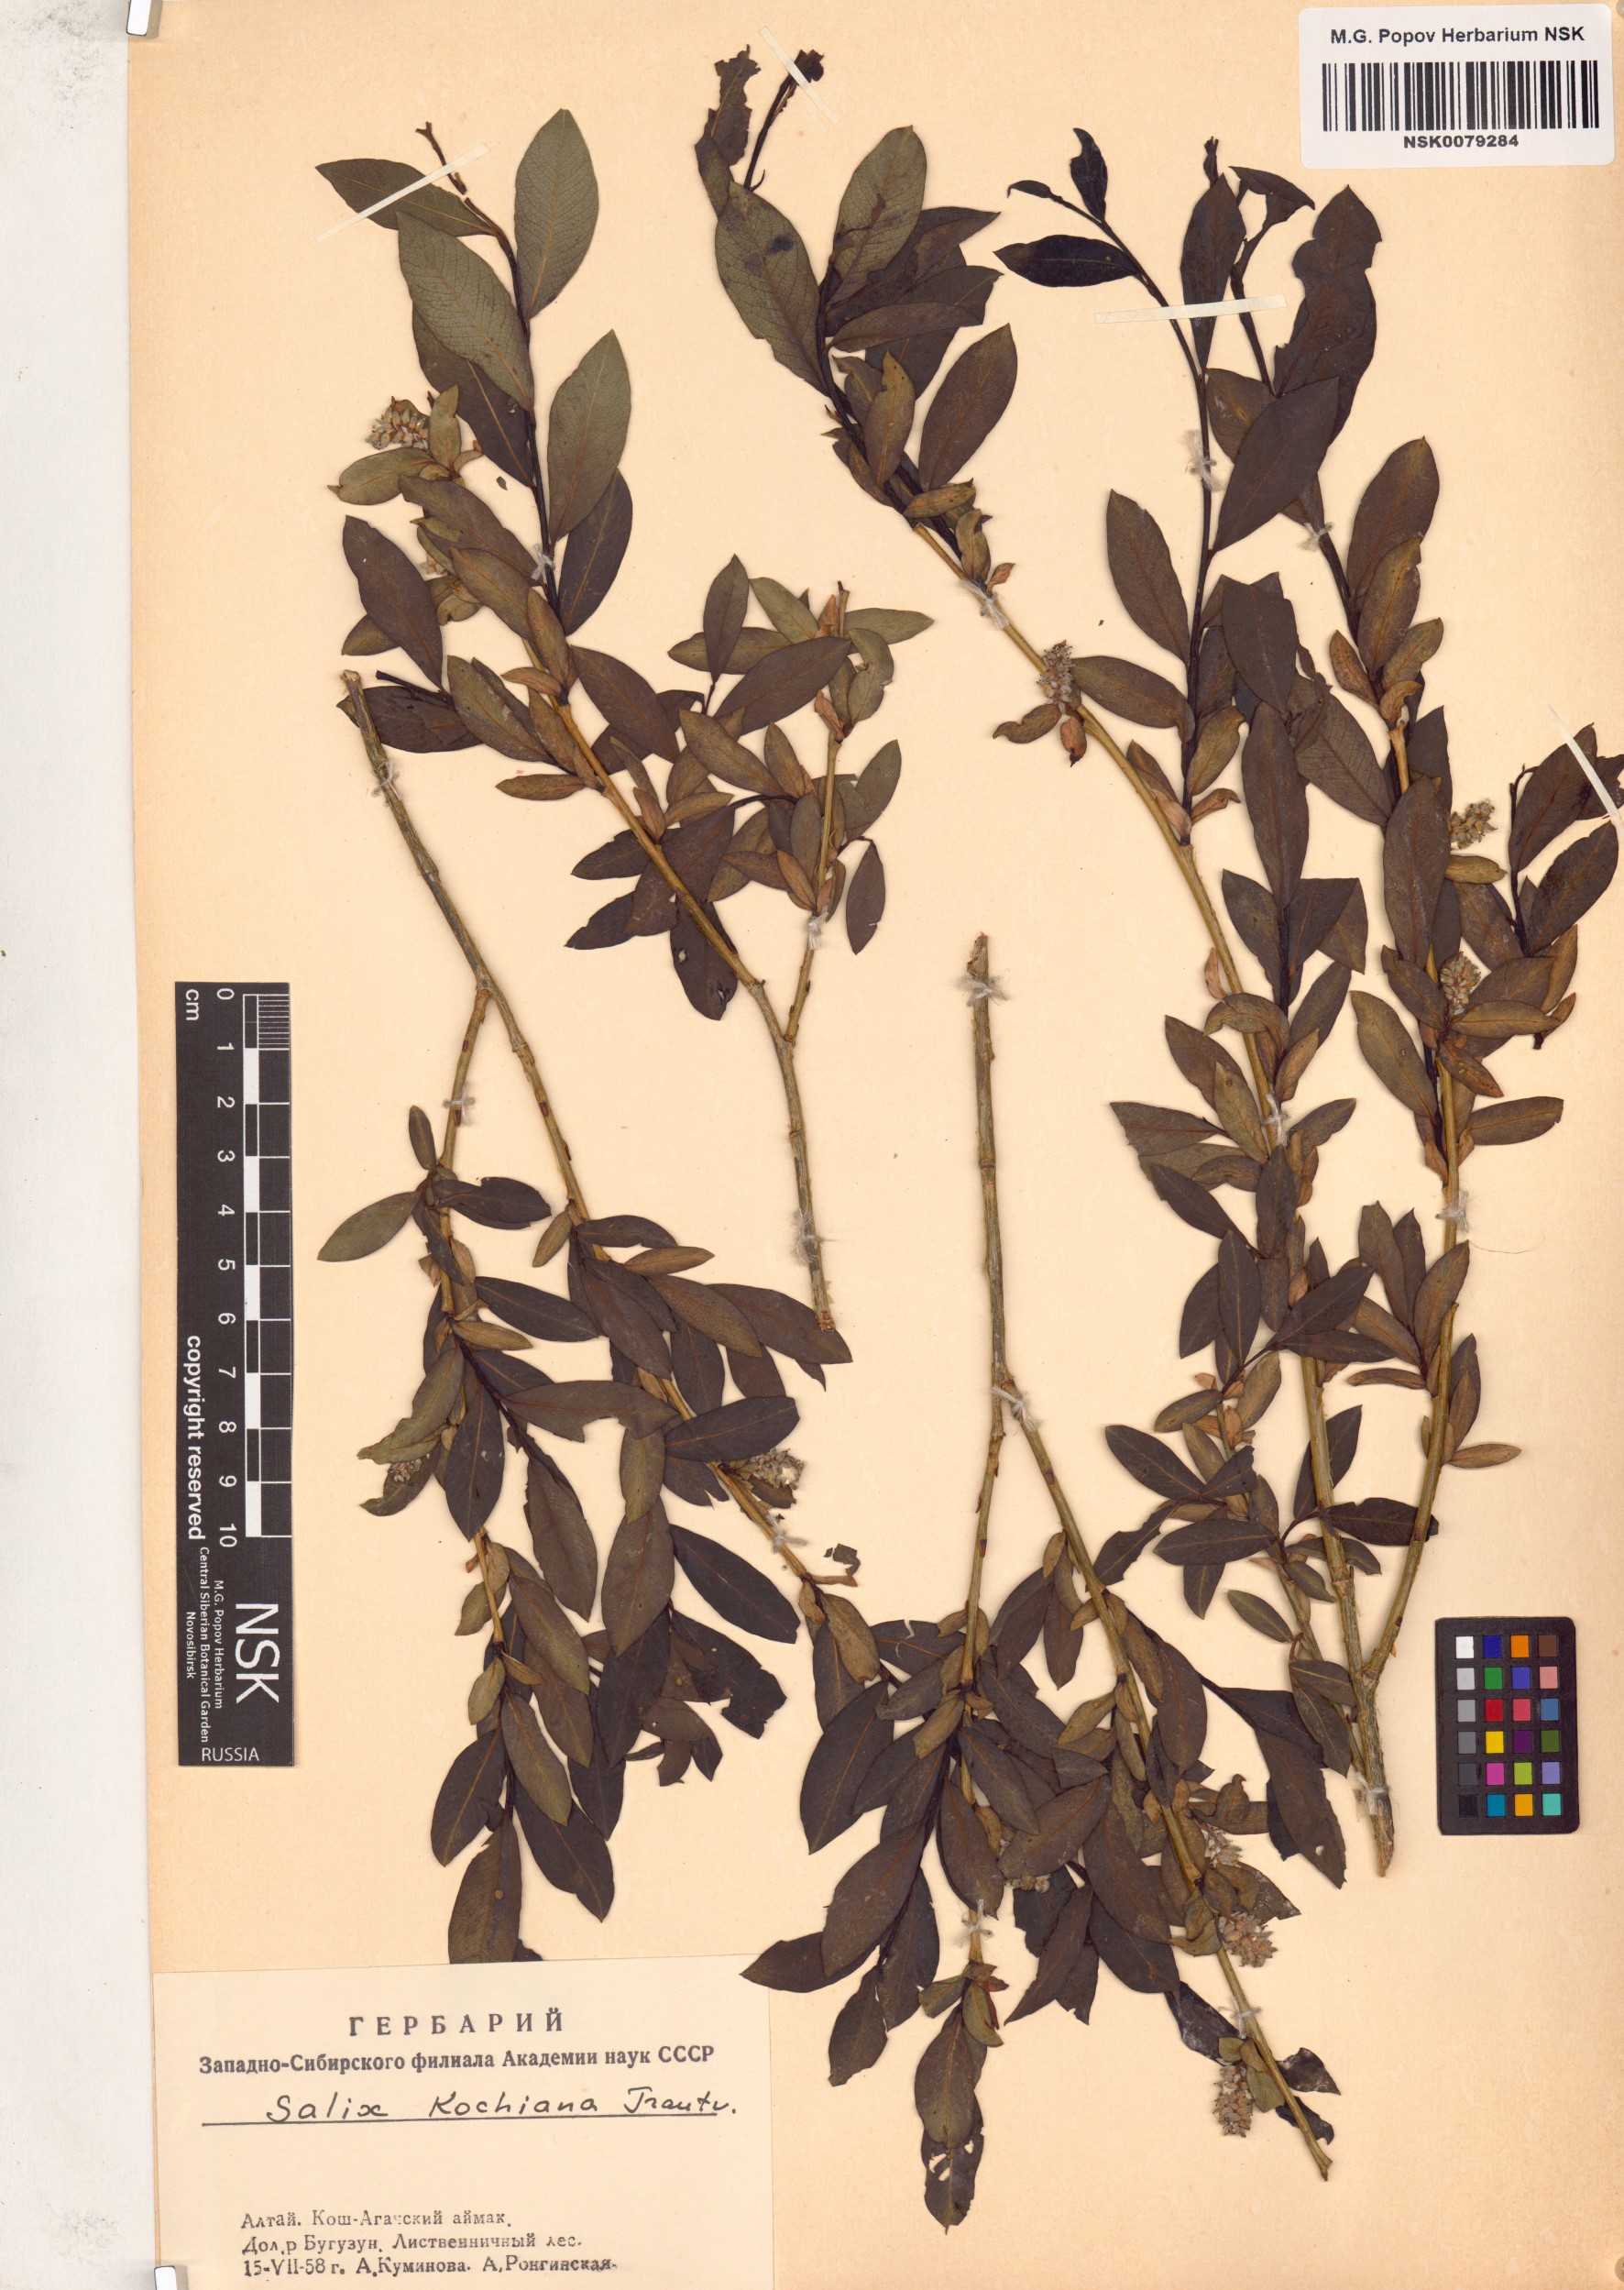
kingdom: Plantae
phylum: Tracheophyta
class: Magnoliopsida
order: Malpighiales
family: Salicaceae
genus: Salix
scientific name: Salix kochiana
